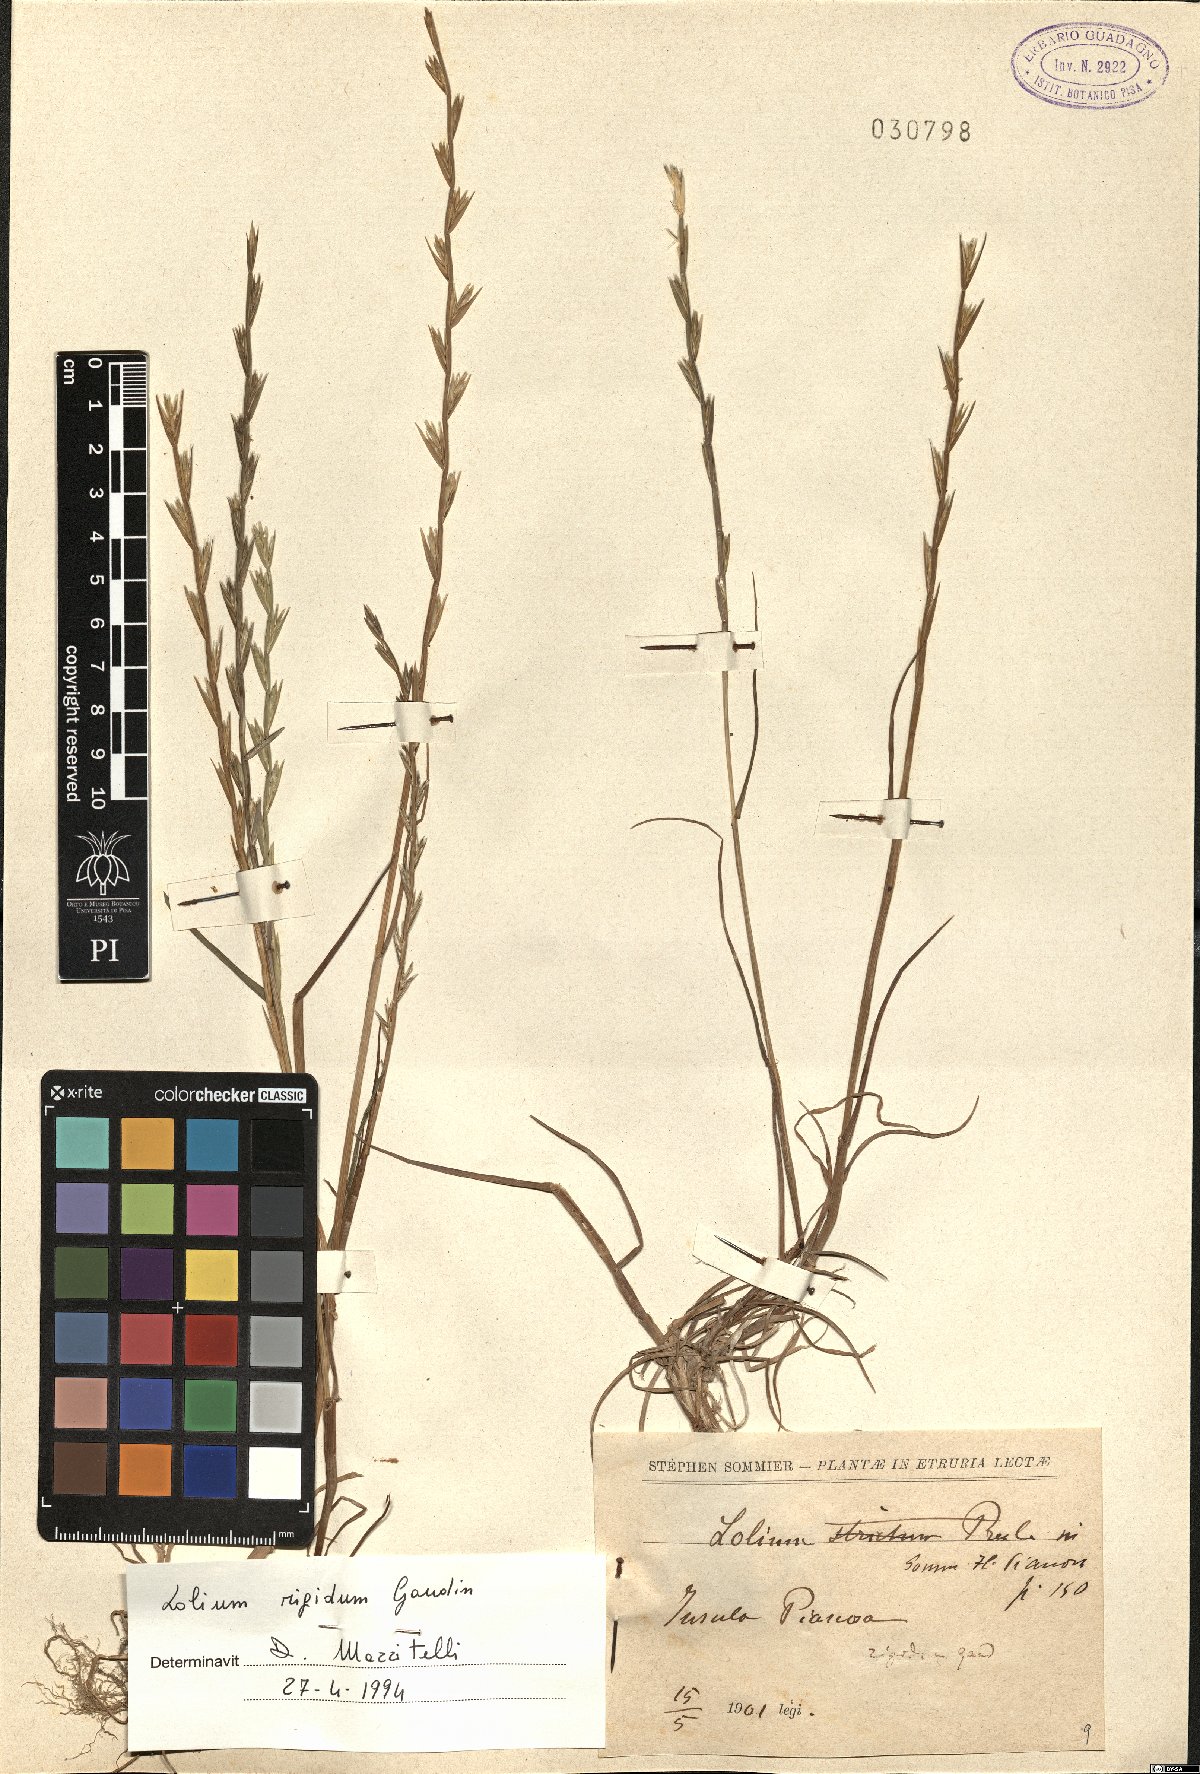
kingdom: Plantae
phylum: Tracheophyta
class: Liliopsida
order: Poales
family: Poaceae
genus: Lolium
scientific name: Lolium rigidum
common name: Wimmera ryegrass
